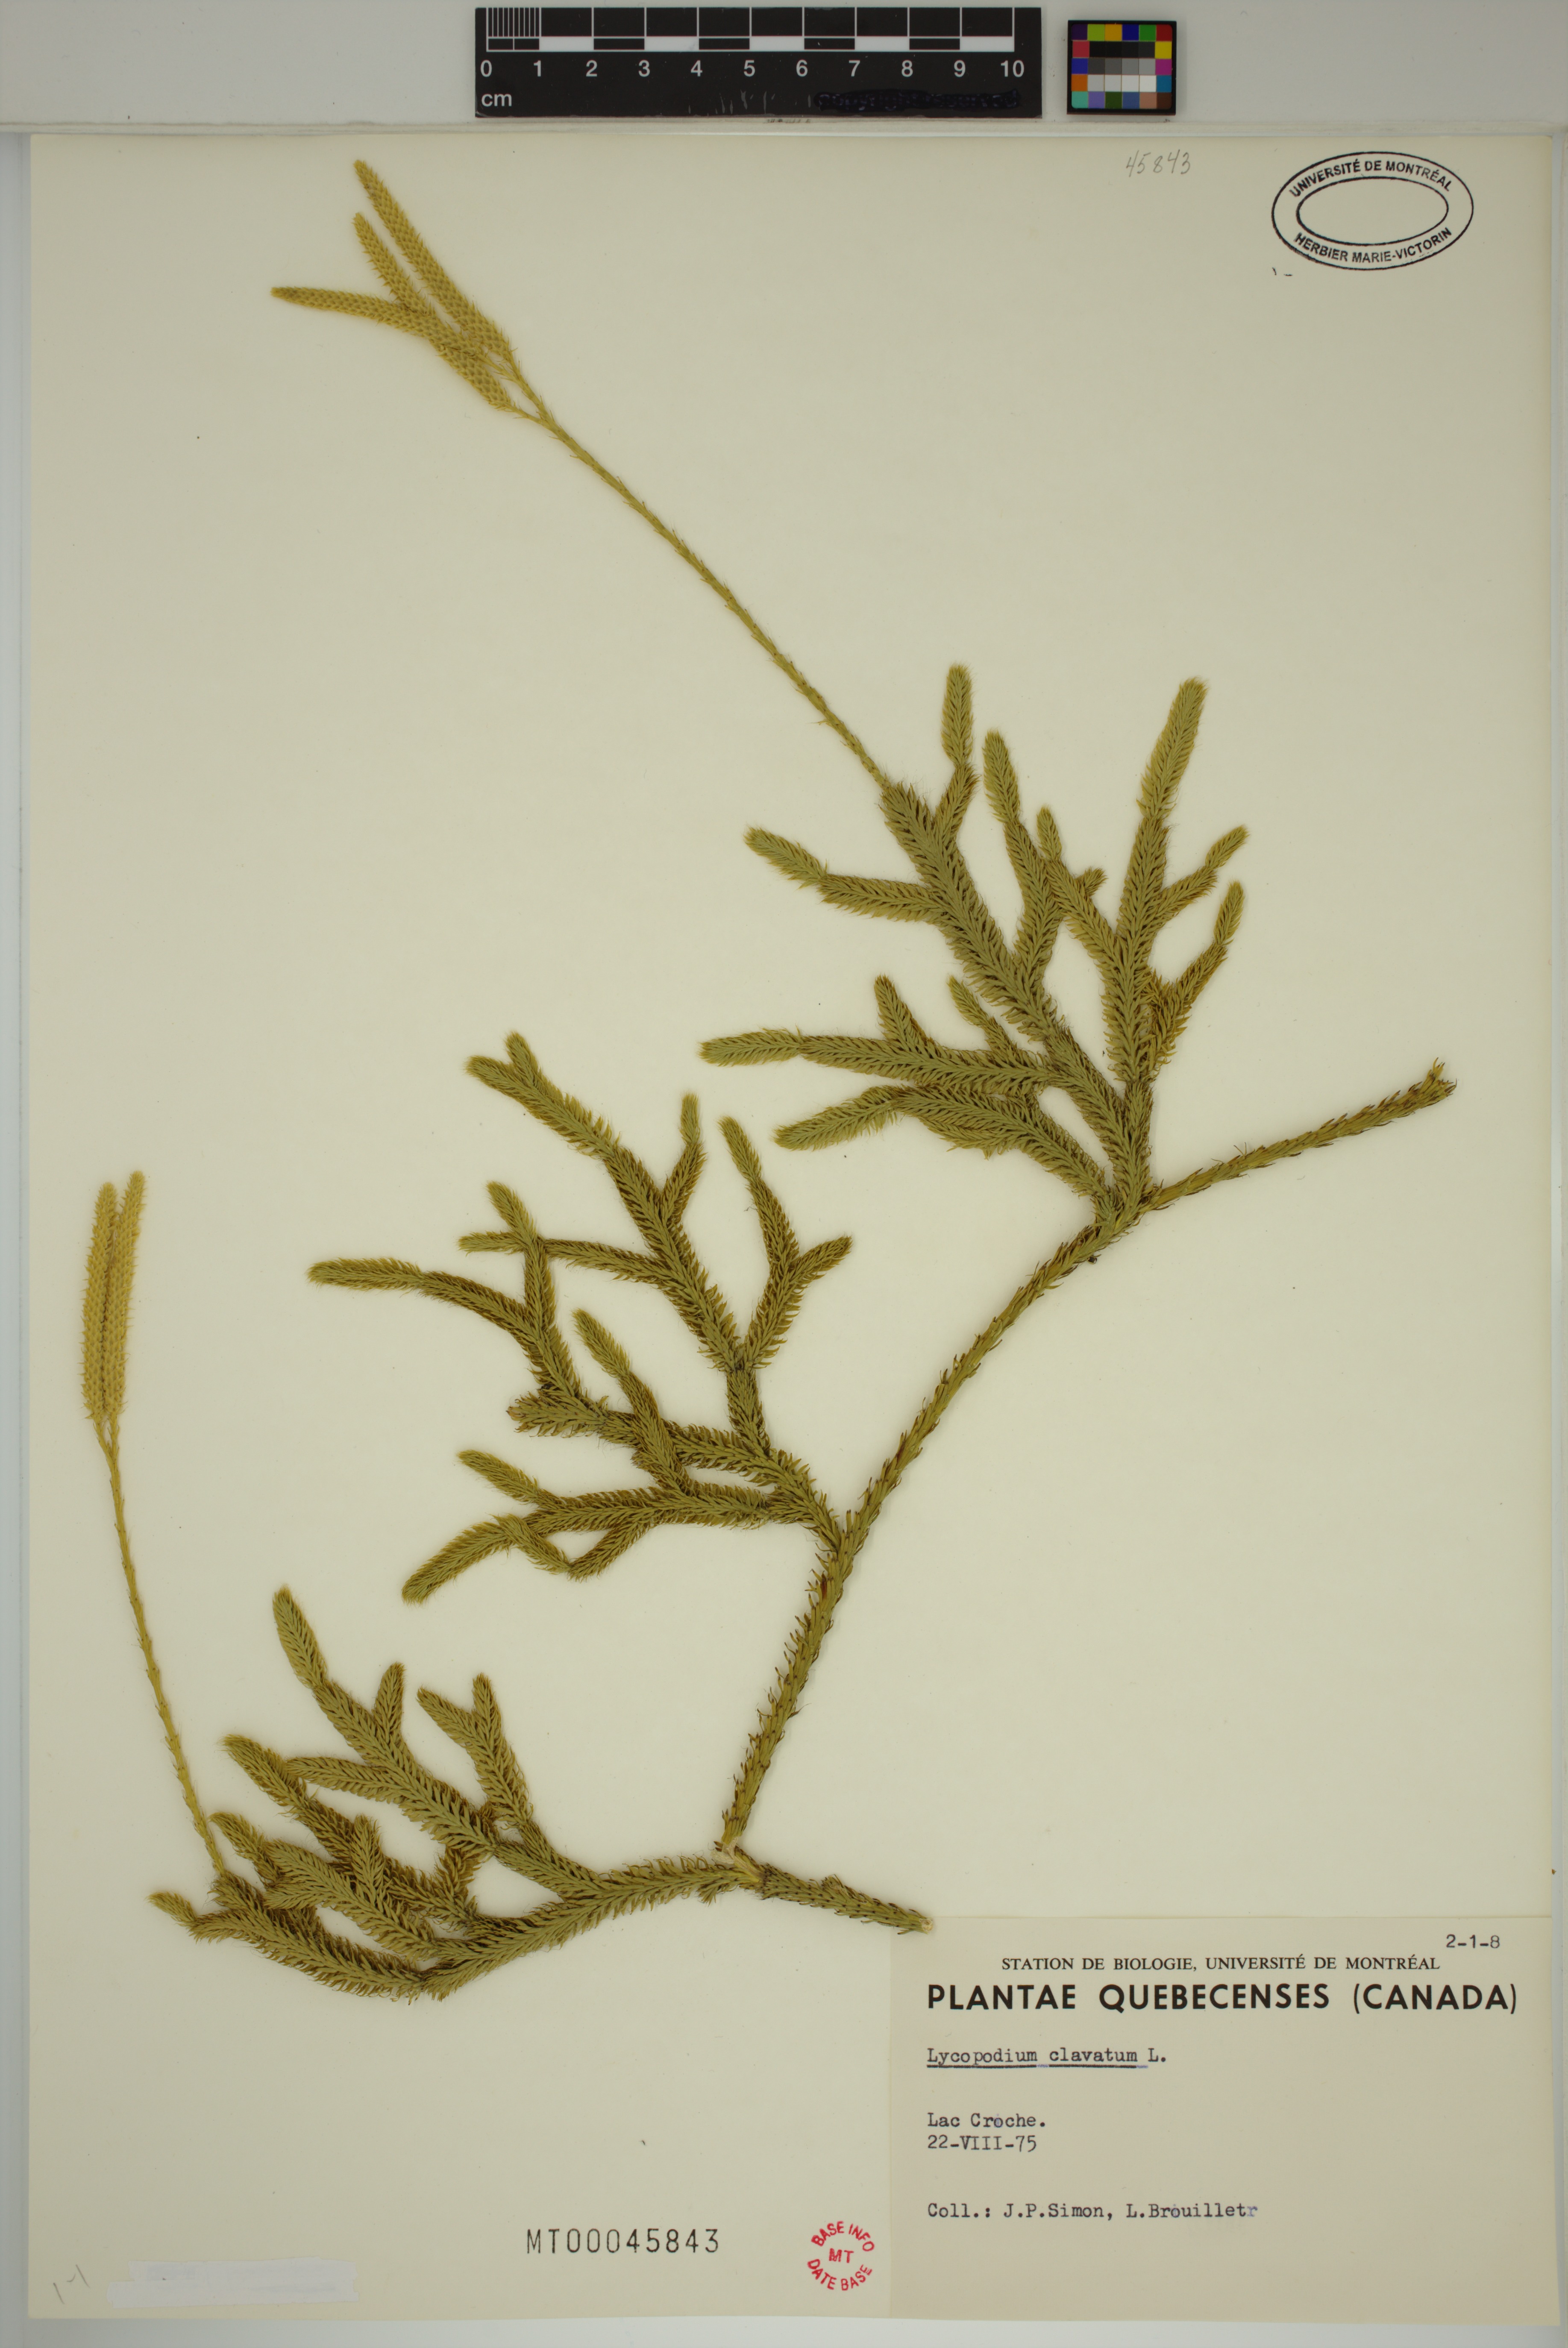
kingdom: Plantae
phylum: Tracheophyta
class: Lycopodiopsida
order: Lycopodiales
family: Lycopodiaceae
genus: Lycopodium
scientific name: Lycopodium clavatum
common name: Stag's-horn clubmoss
